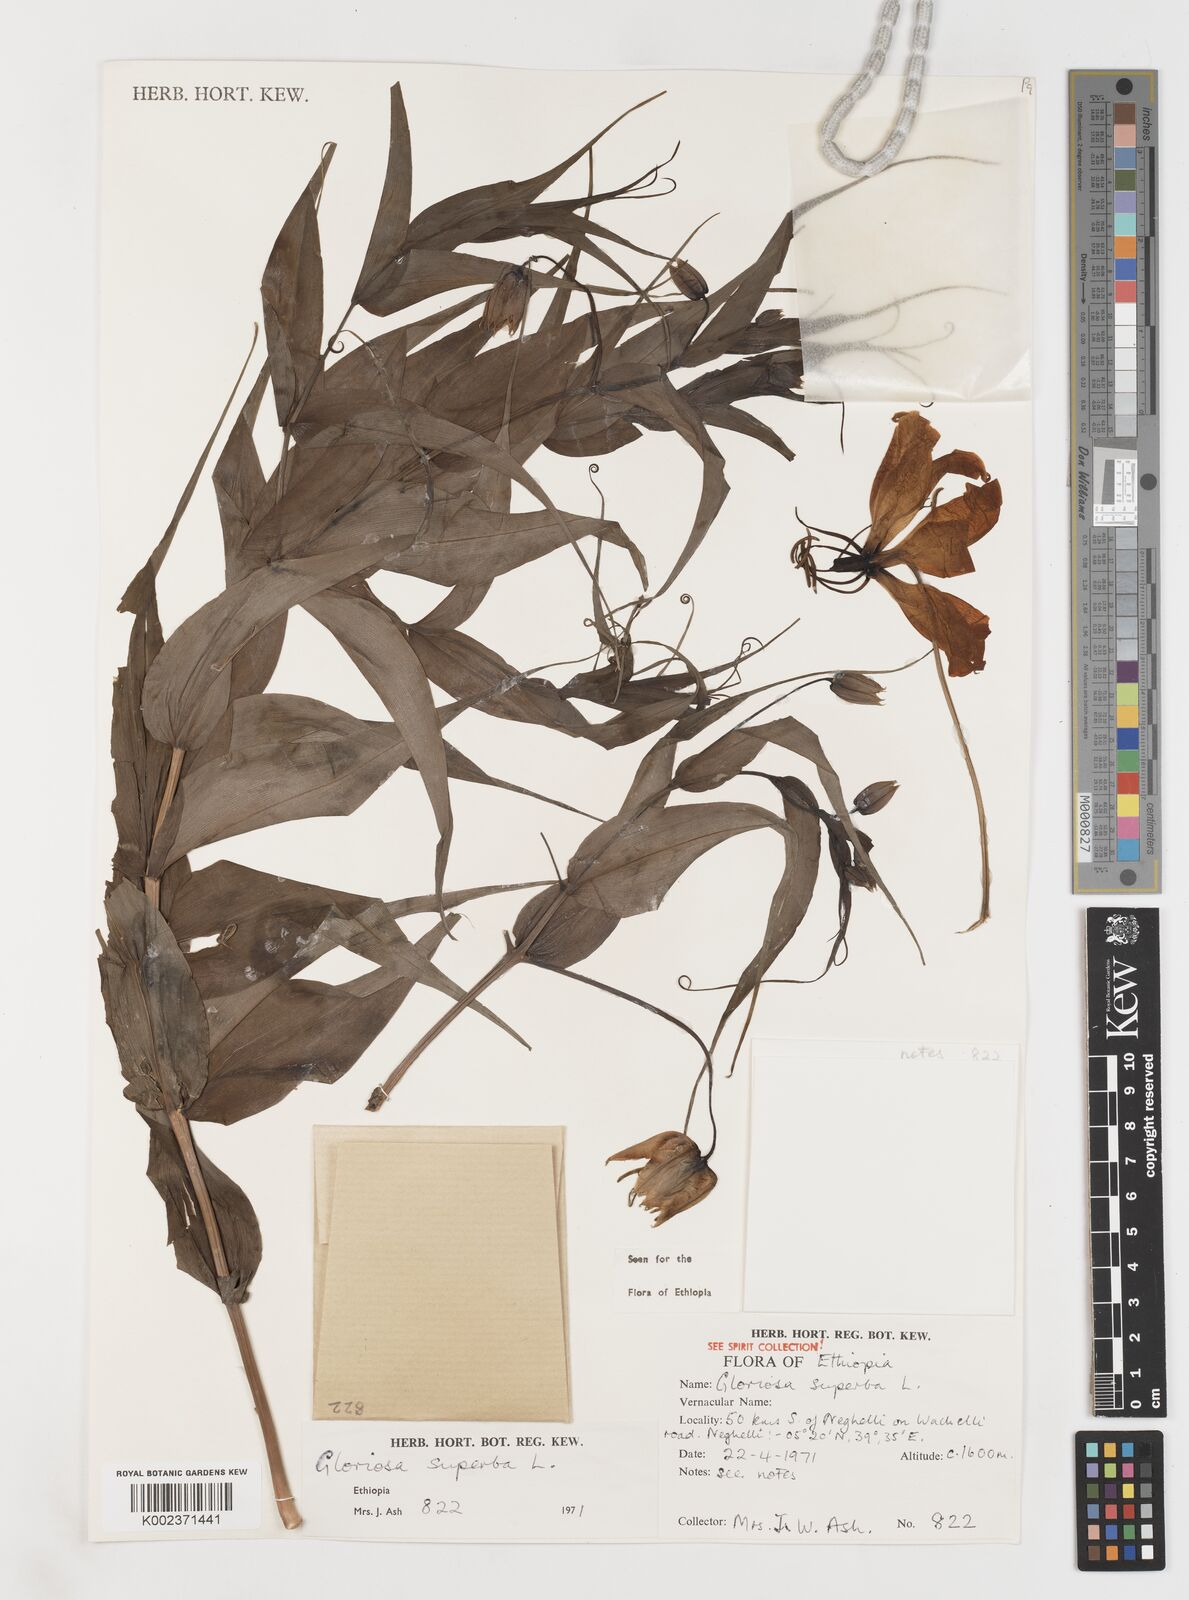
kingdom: Plantae
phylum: Tracheophyta
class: Liliopsida
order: Liliales
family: Colchicaceae
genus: Gloriosa
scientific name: Gloriosa simplex
